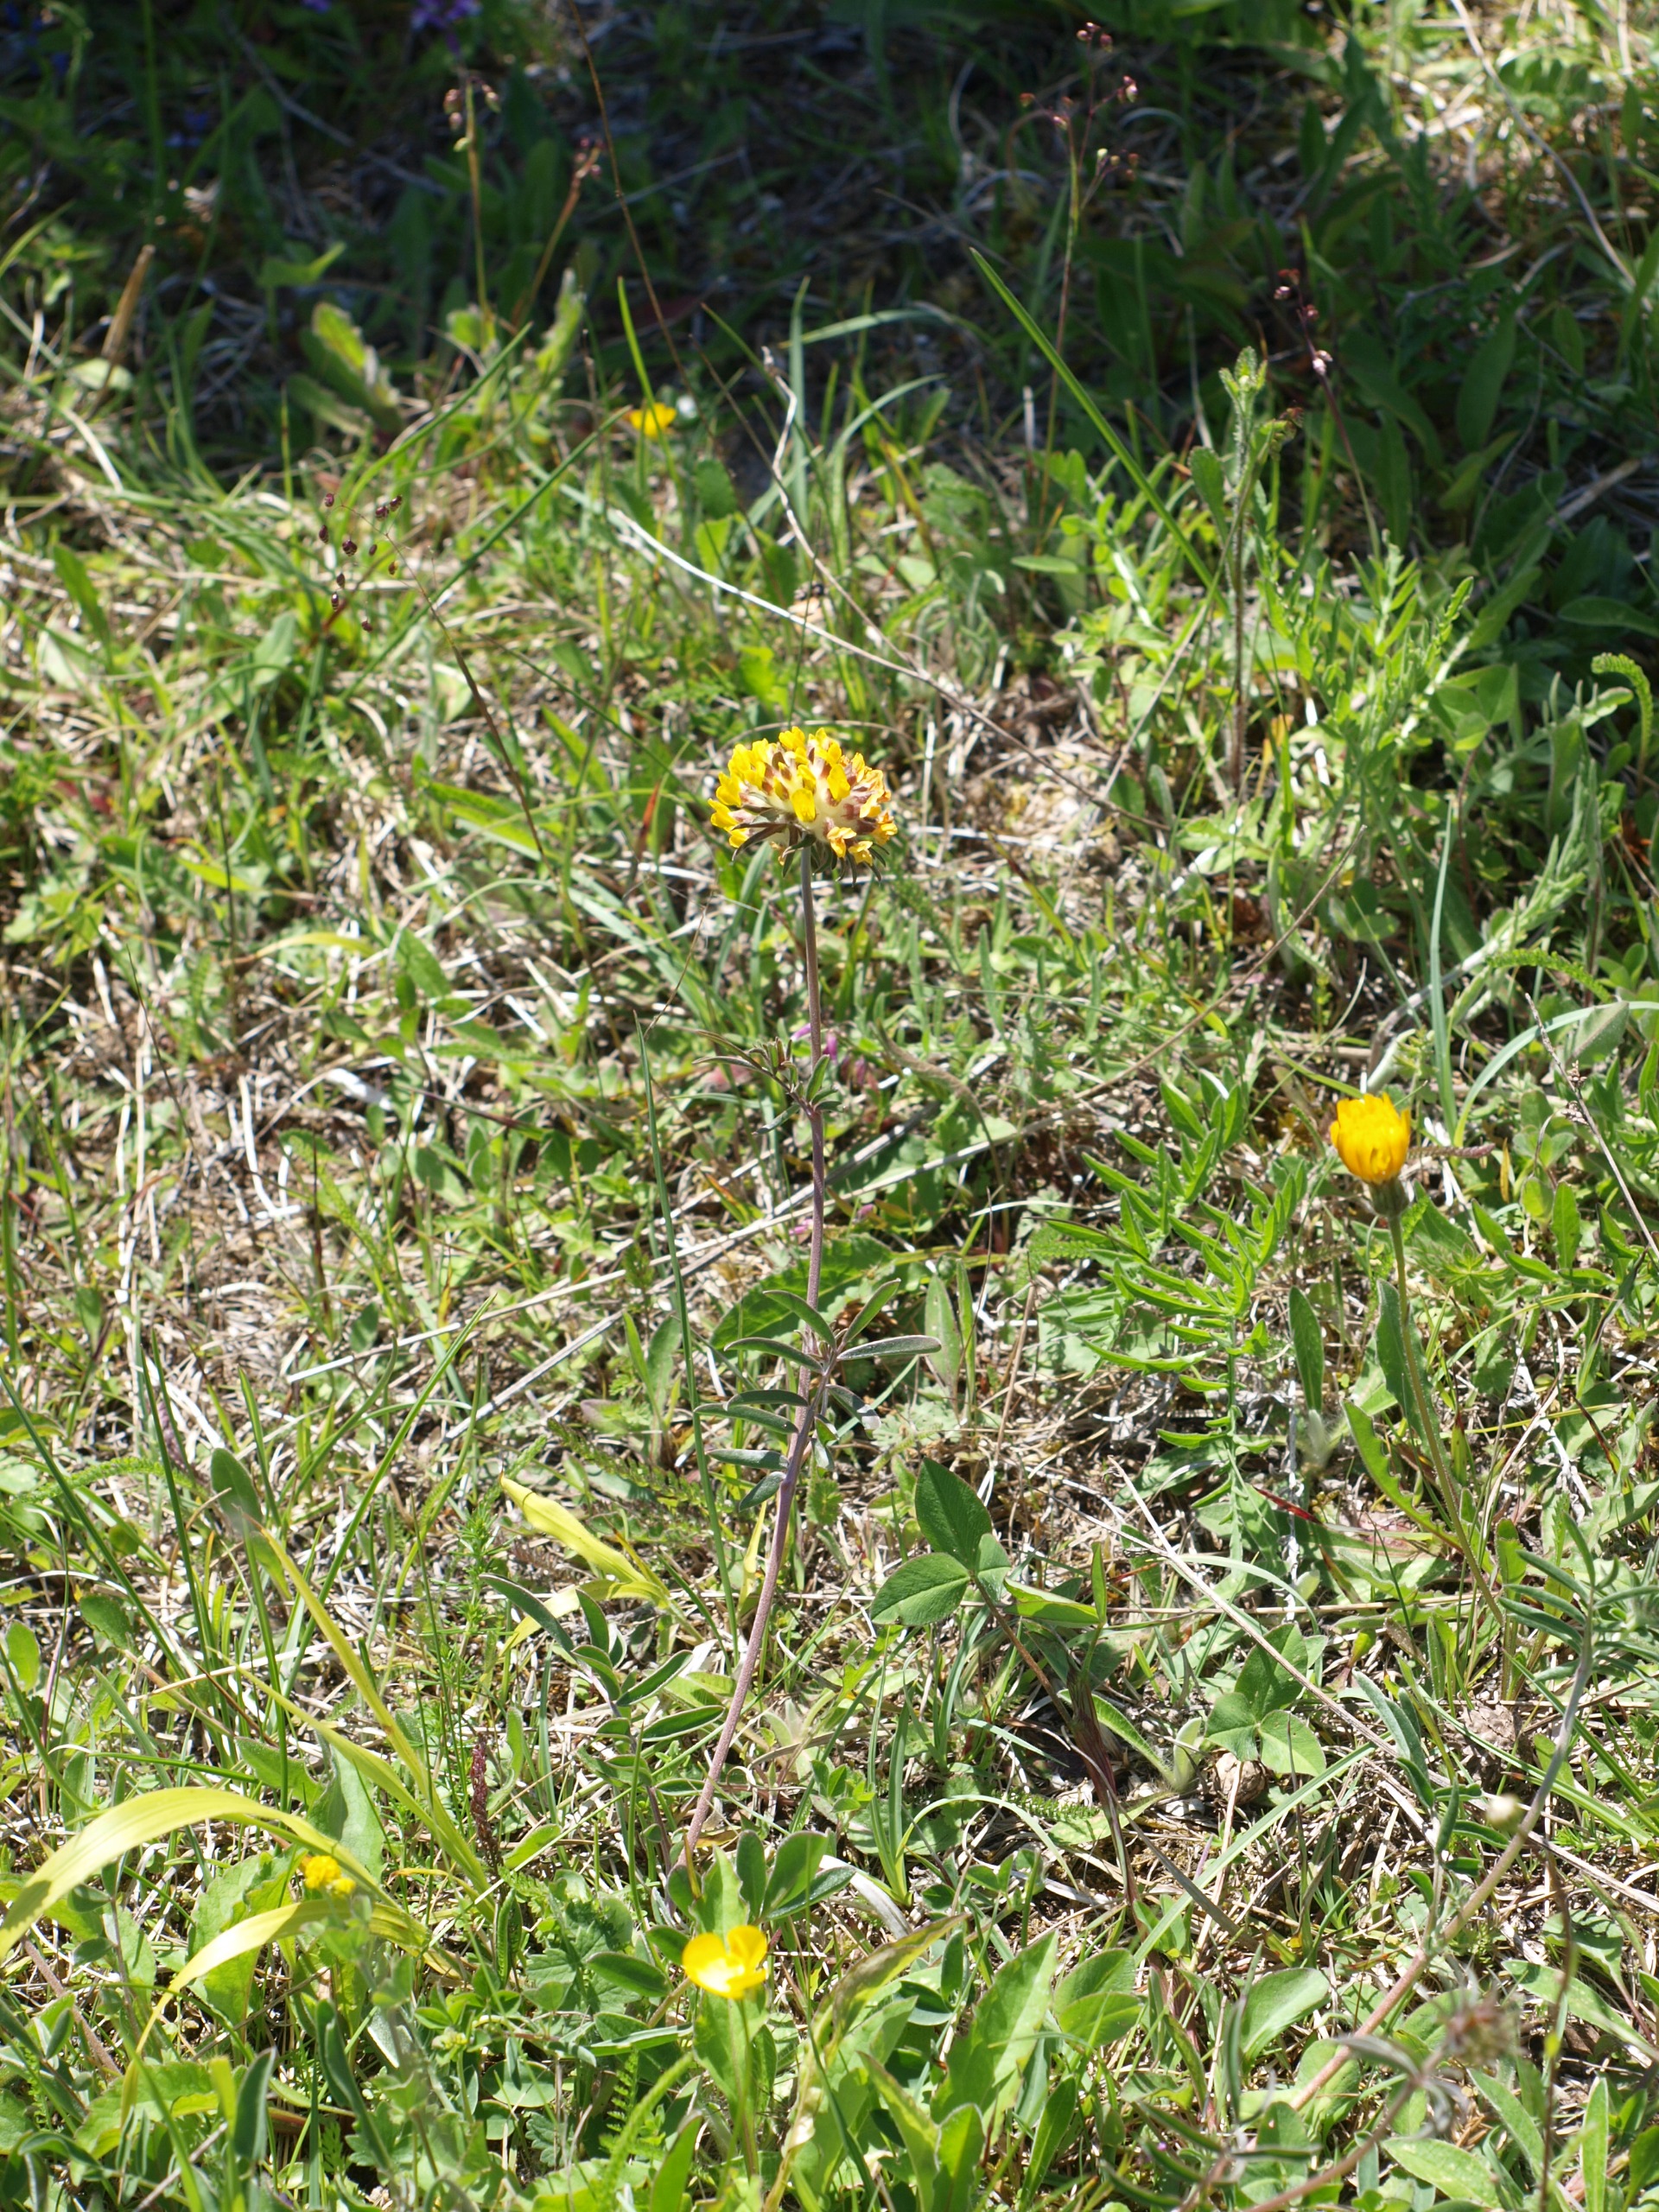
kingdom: Plantae
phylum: Tracheophyta
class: Magnoliopsida
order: Fabales
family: Fabaceae
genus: Anthyllis
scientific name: Anthyllis vulneraria
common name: Rundbælg
